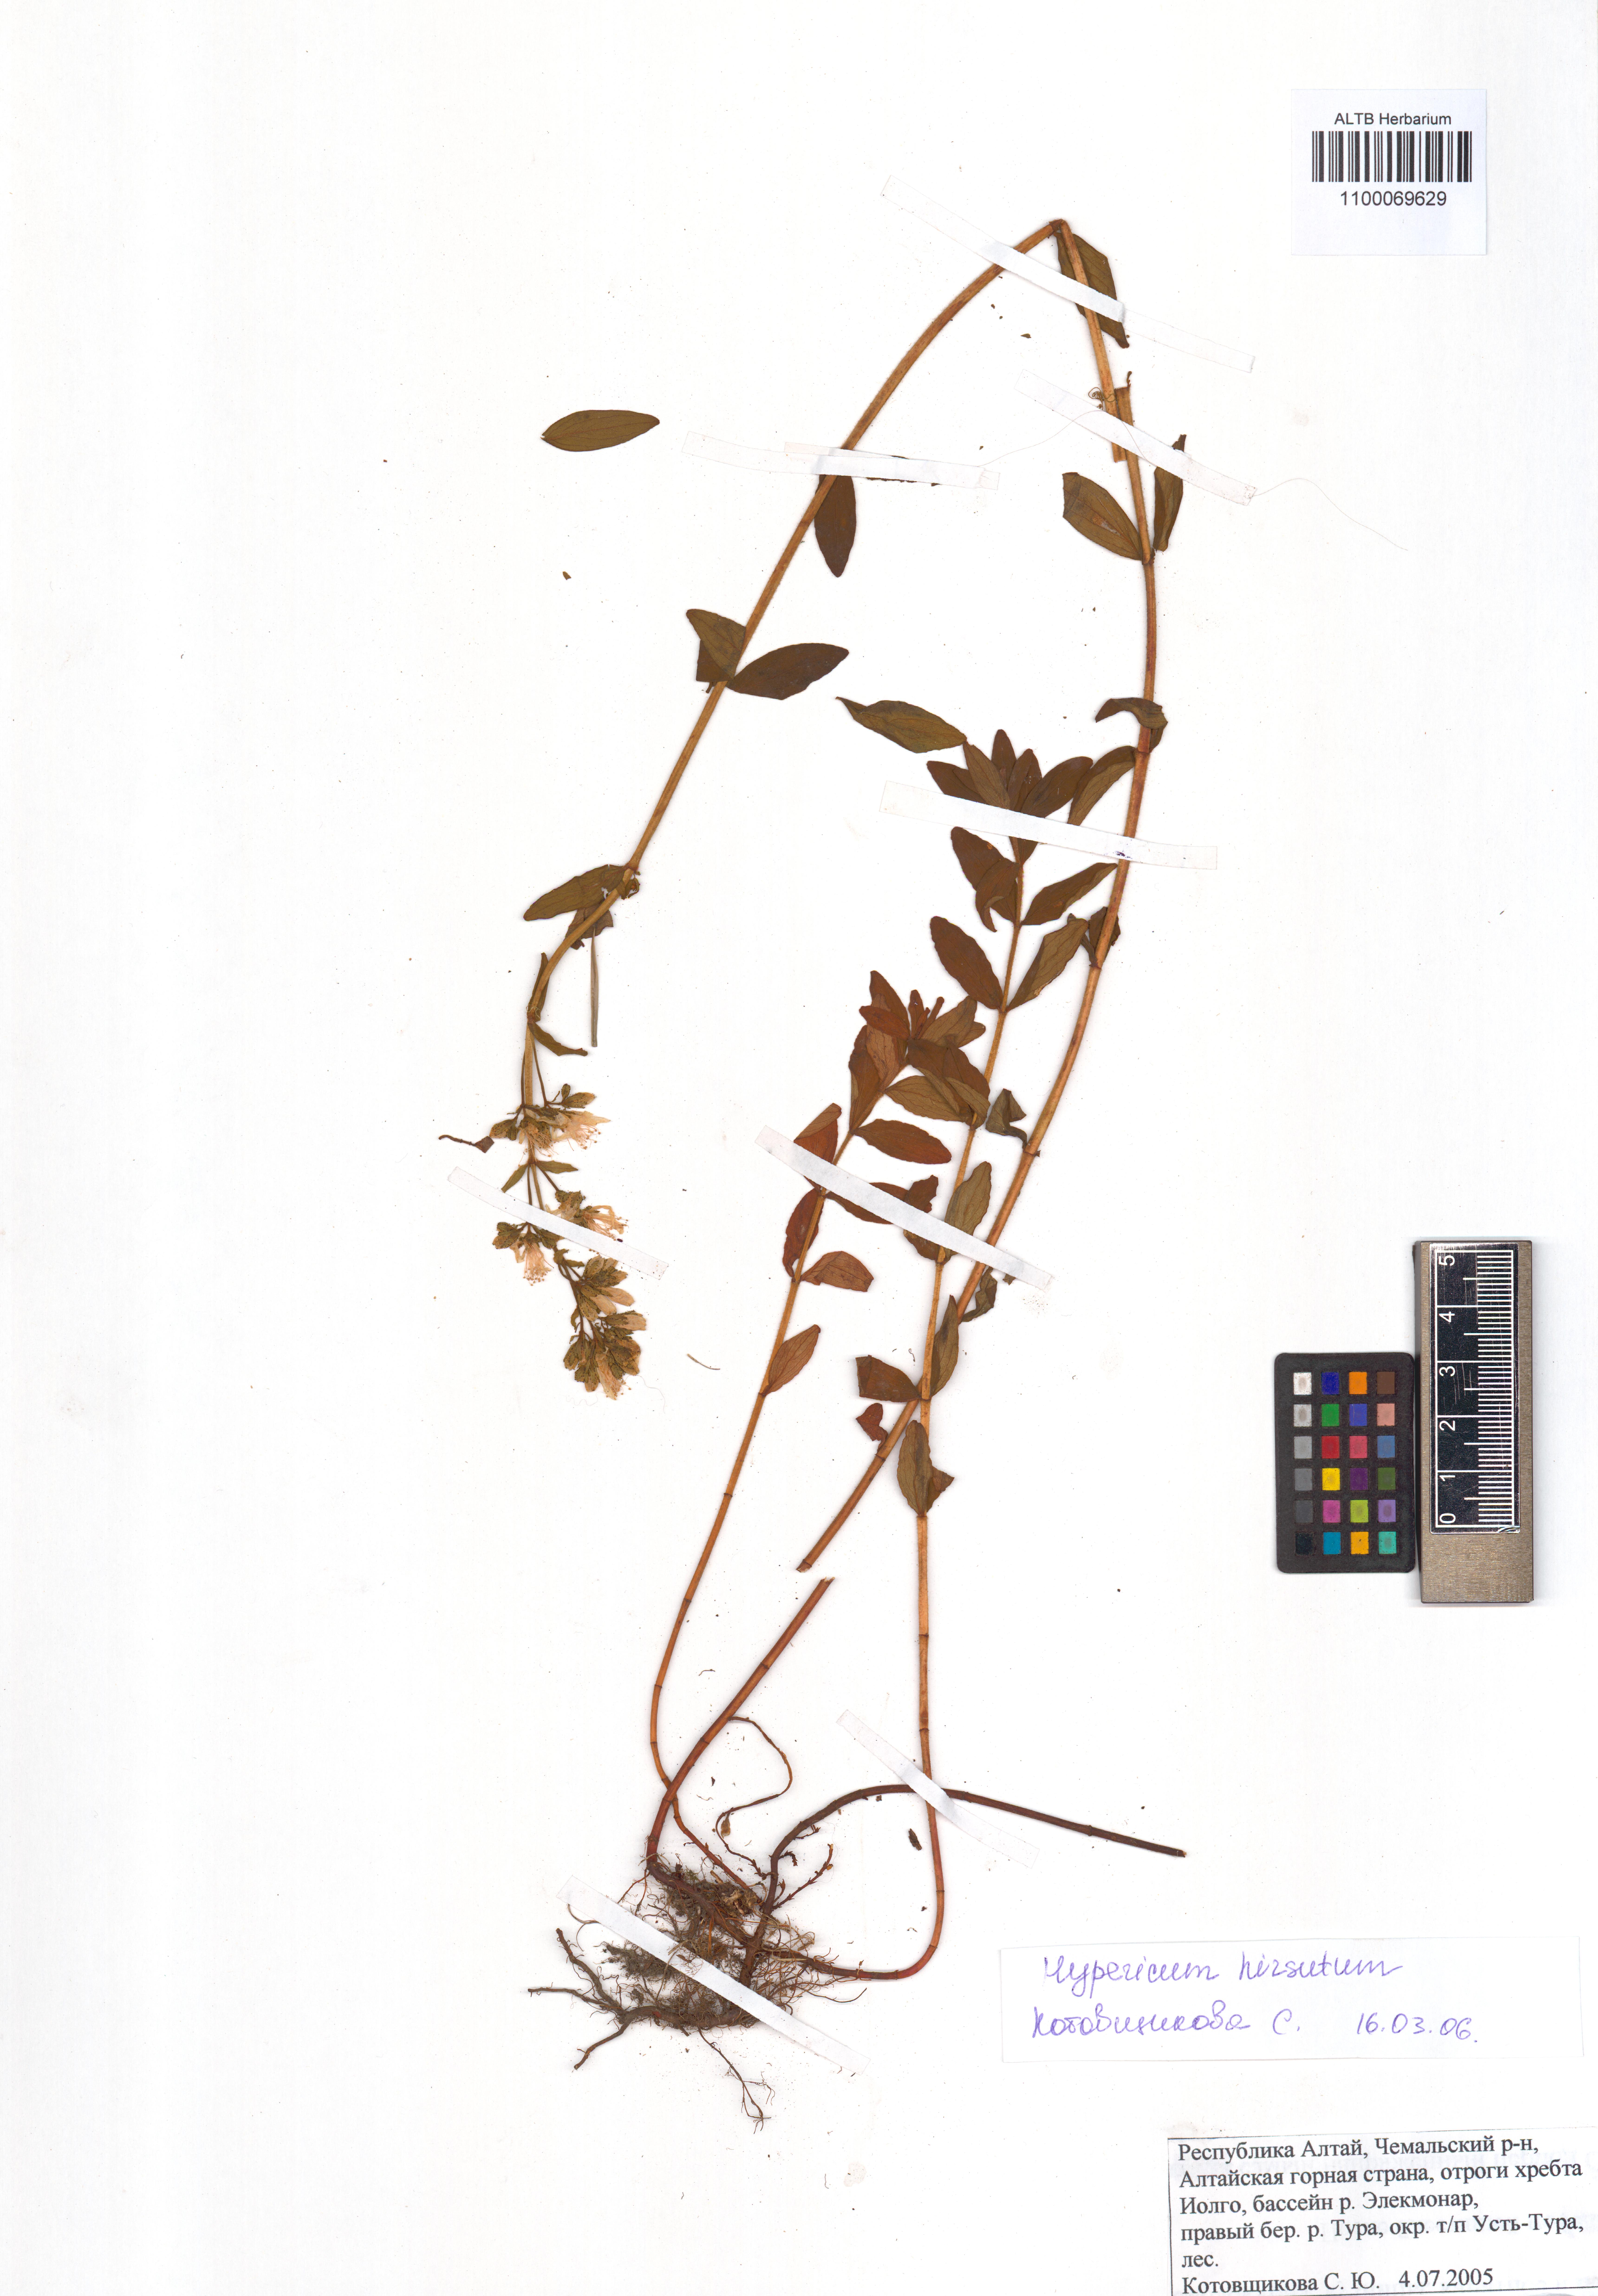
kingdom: Plantae
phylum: Tracheophyta
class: Magnoliopsida
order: Malpighiales
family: Hypericaceae
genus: Hypericum
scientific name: Hypericum hirsutum
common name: Hairy st. john's-wort
